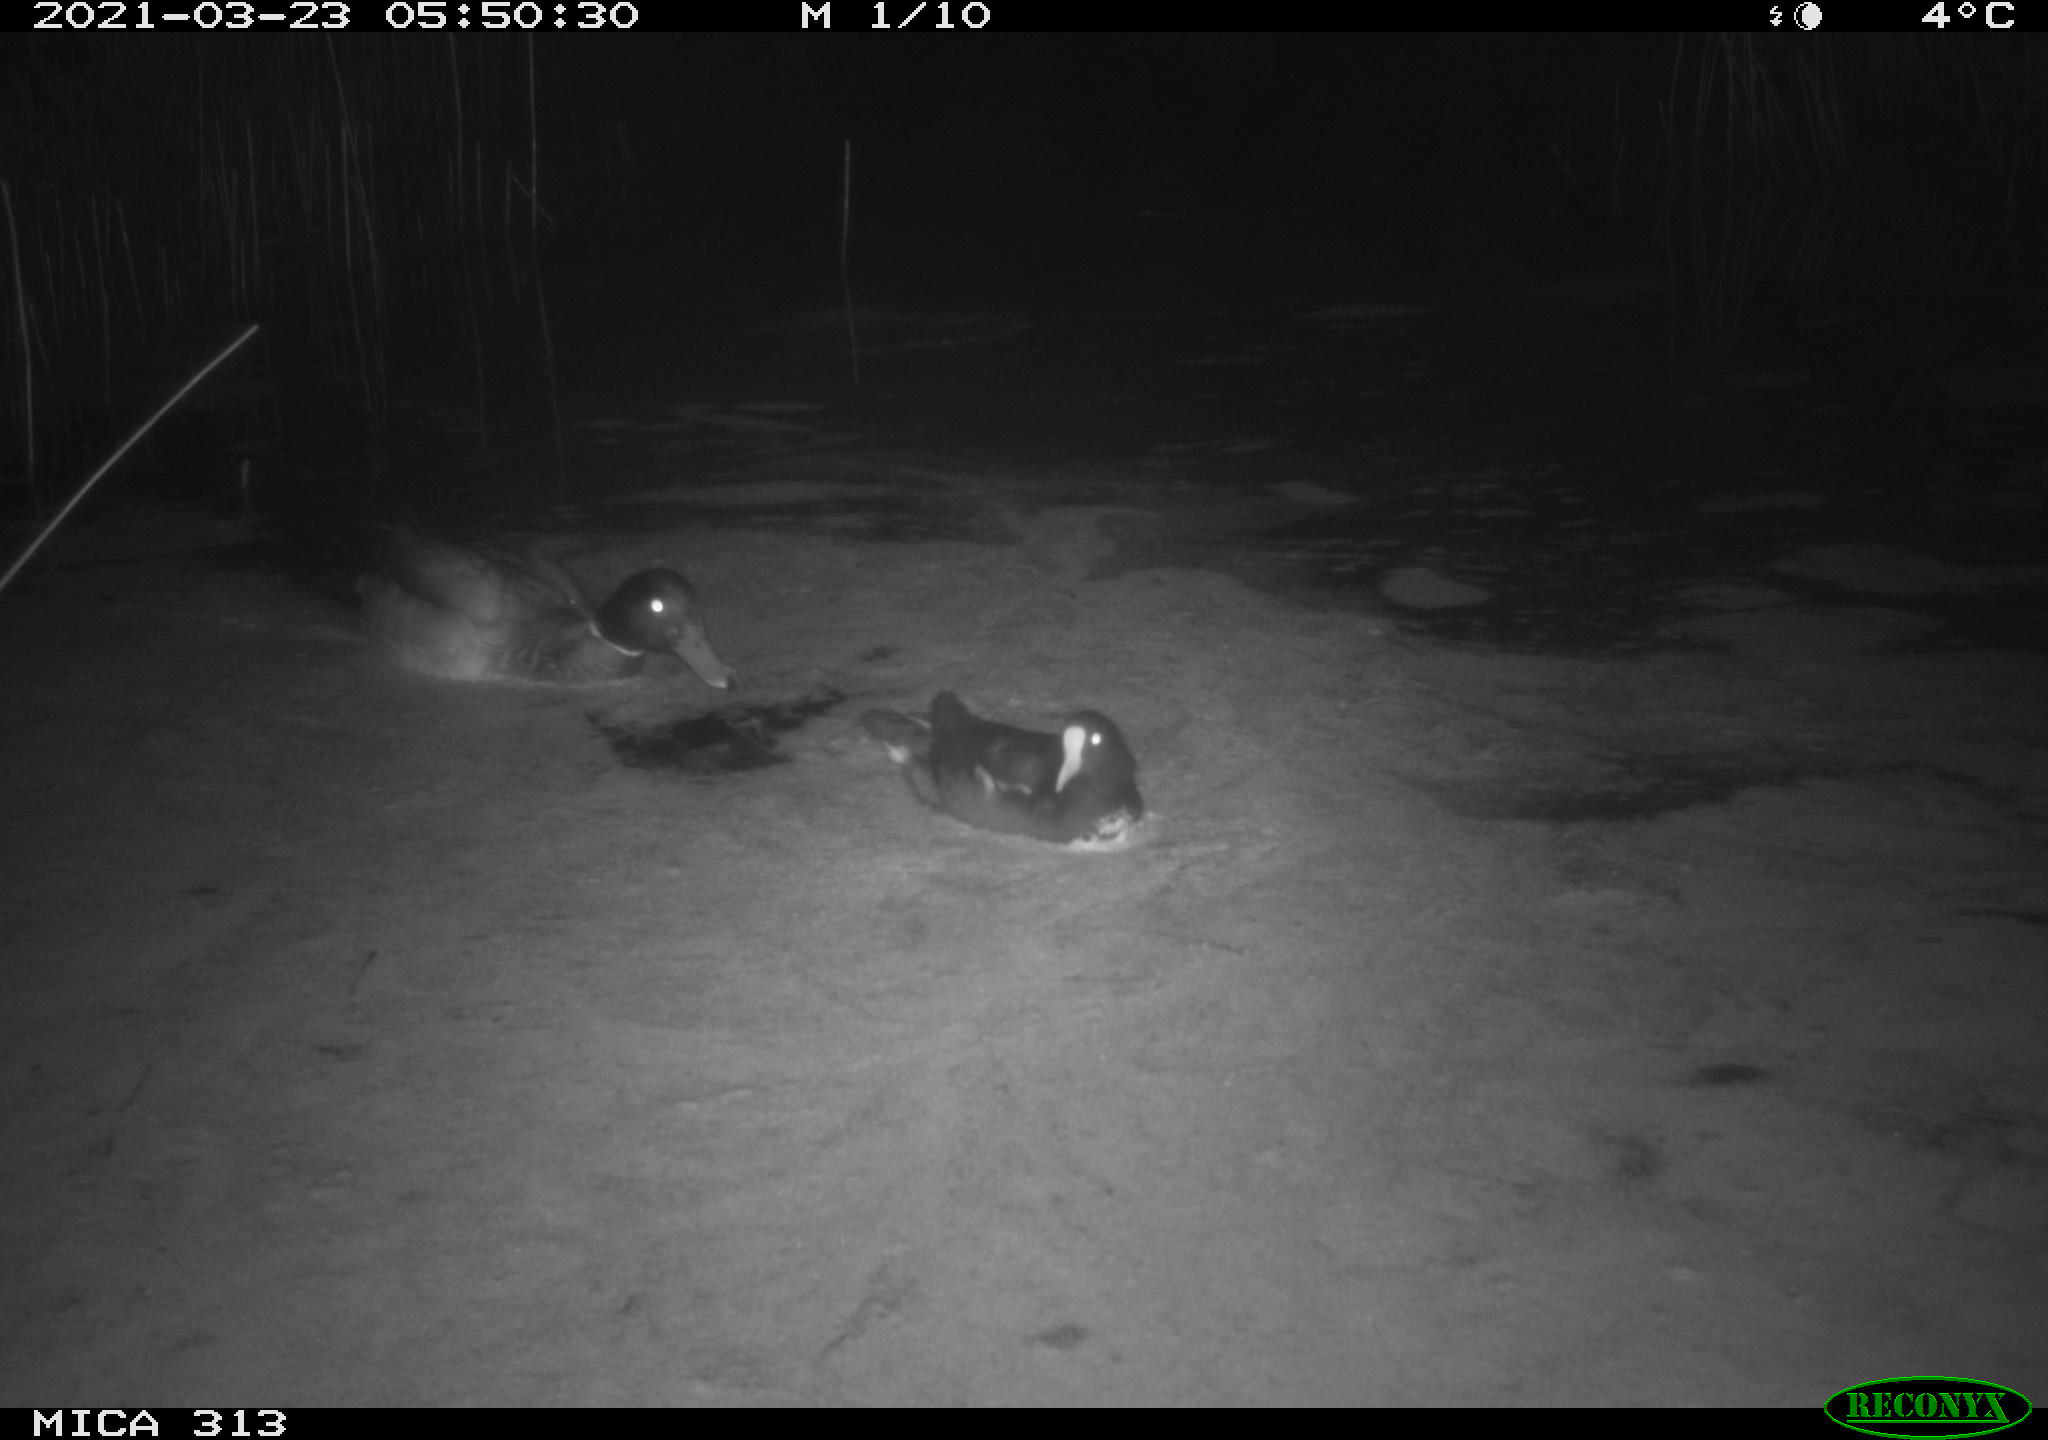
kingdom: Animalia
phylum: Chordata
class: Aves
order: Gruiformes
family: Rallidae
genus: Gallinula
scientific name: Gallinula chloropus
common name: Common moorhen
